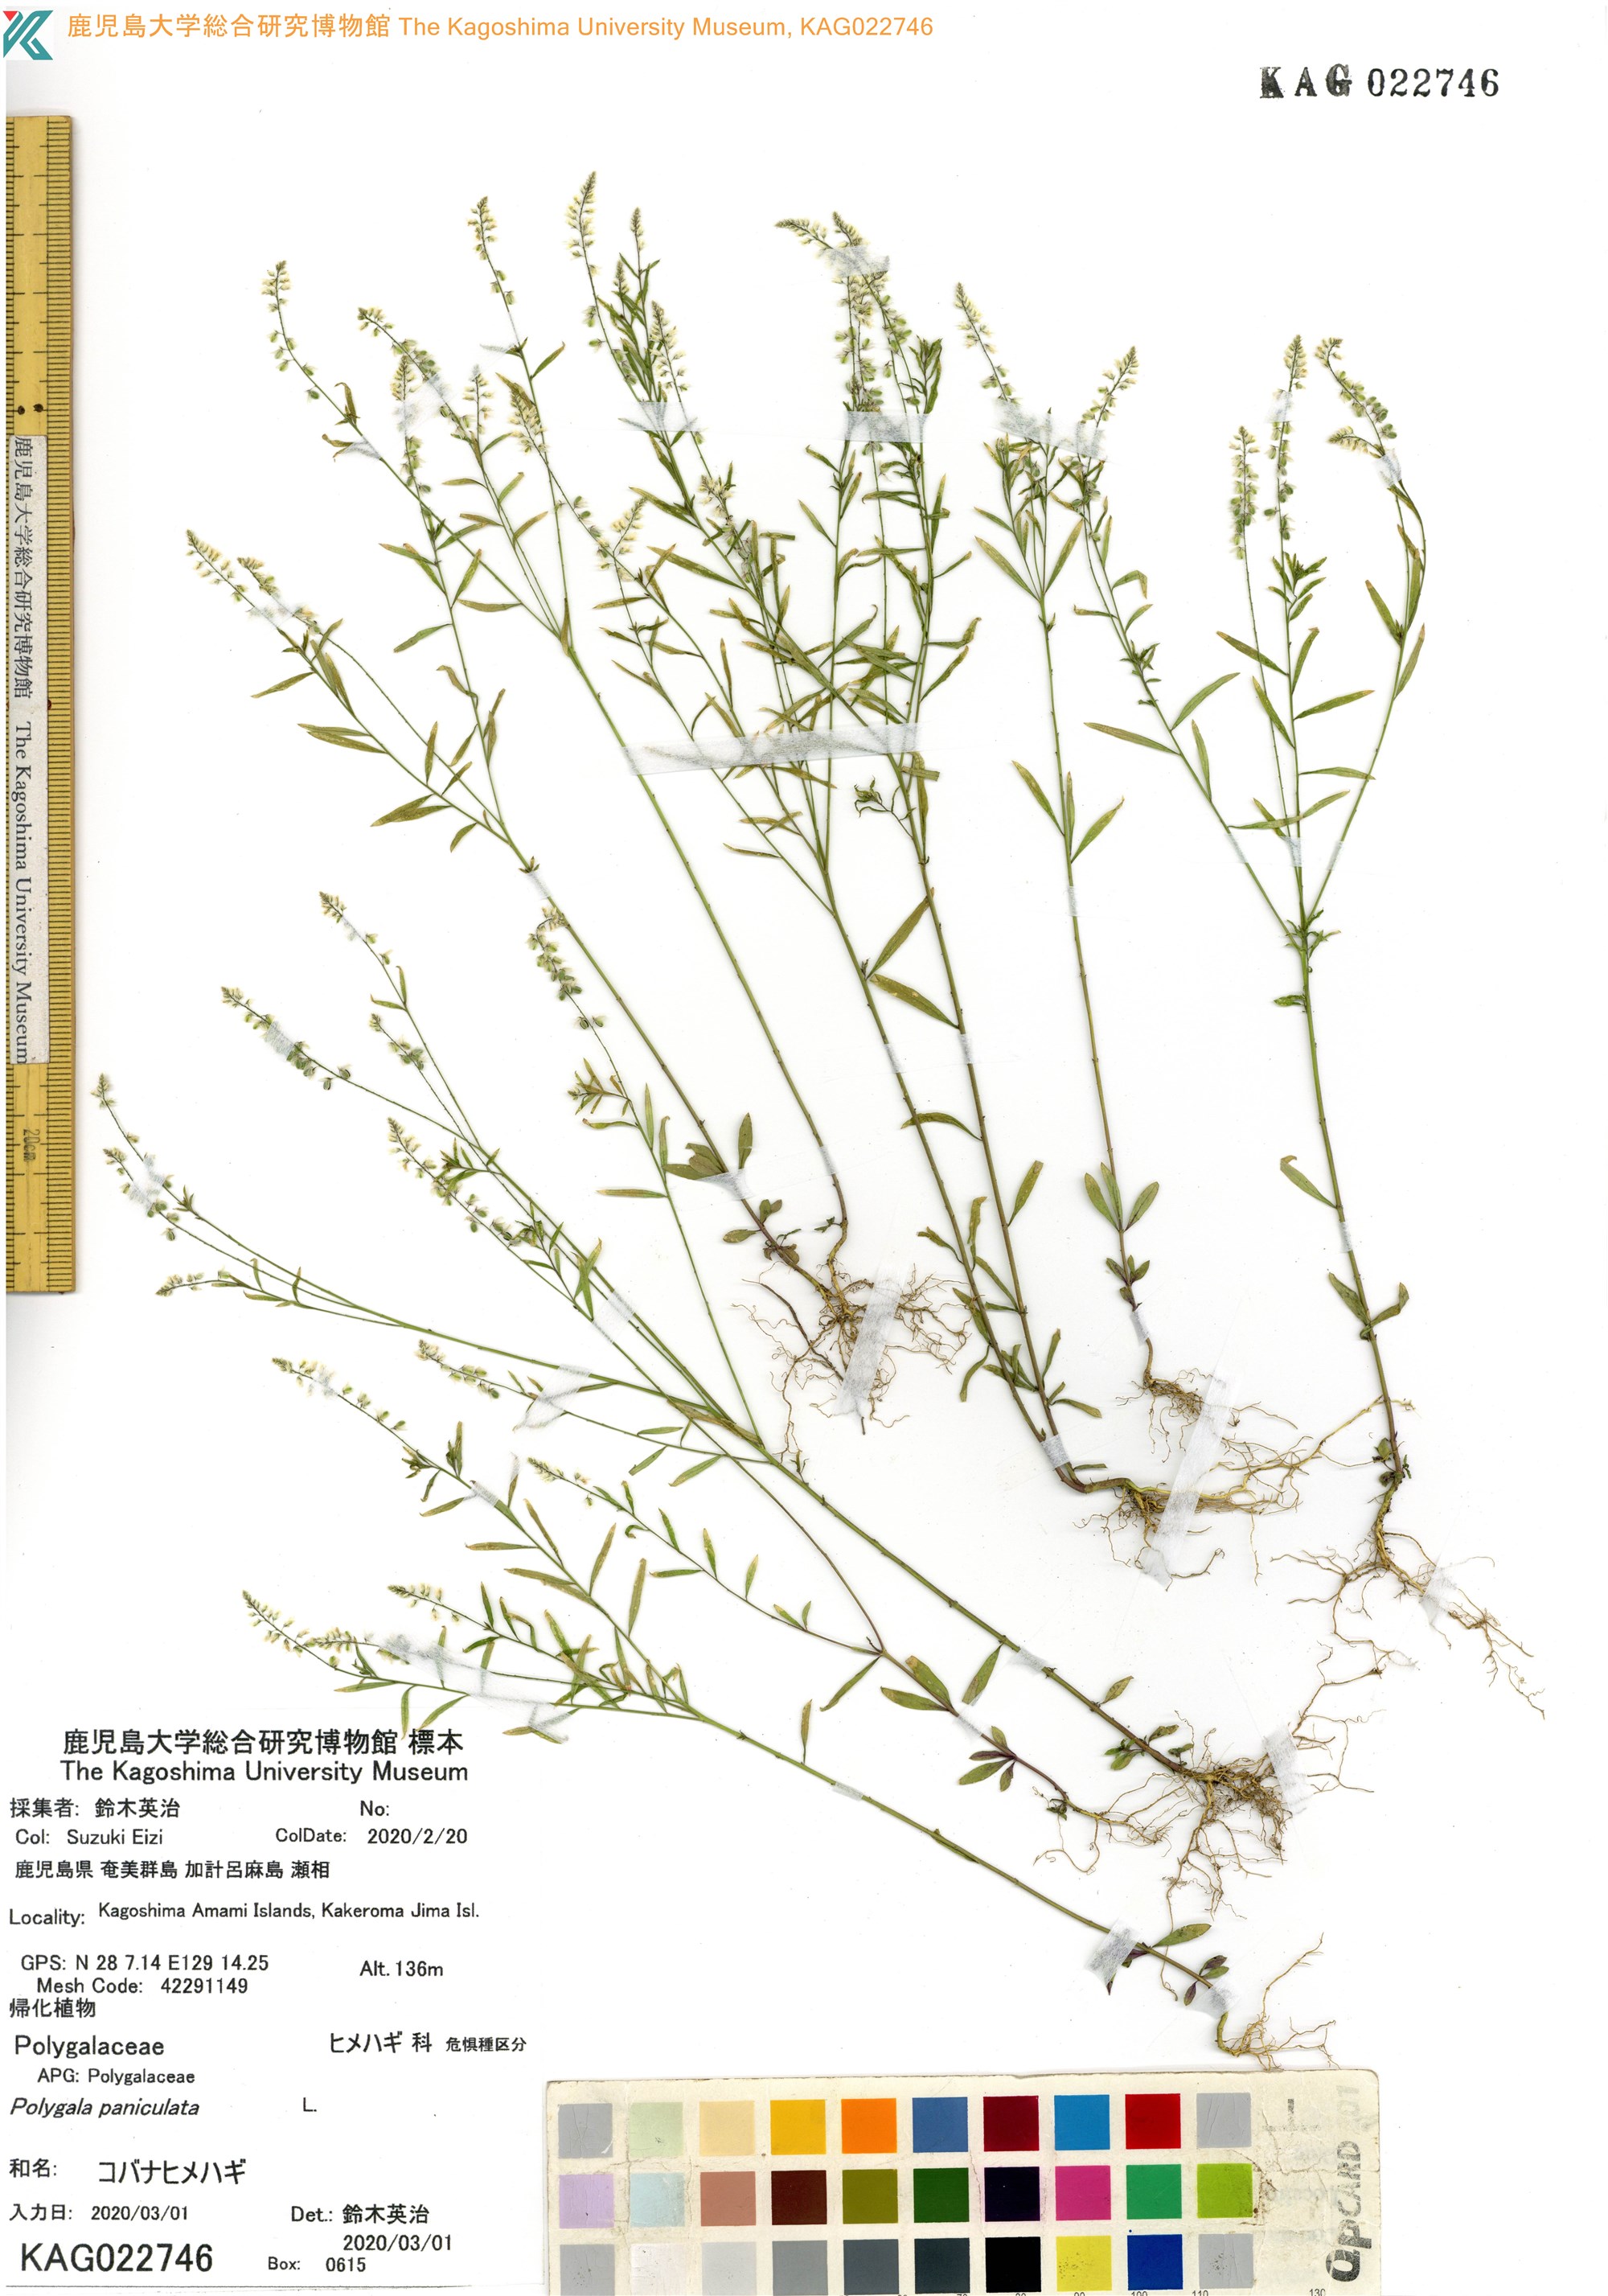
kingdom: Plantae
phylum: Tracheophyta
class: Magnoliopsida
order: Fabales
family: Polygalaceae
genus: Polygala
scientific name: Polygala paniculata
